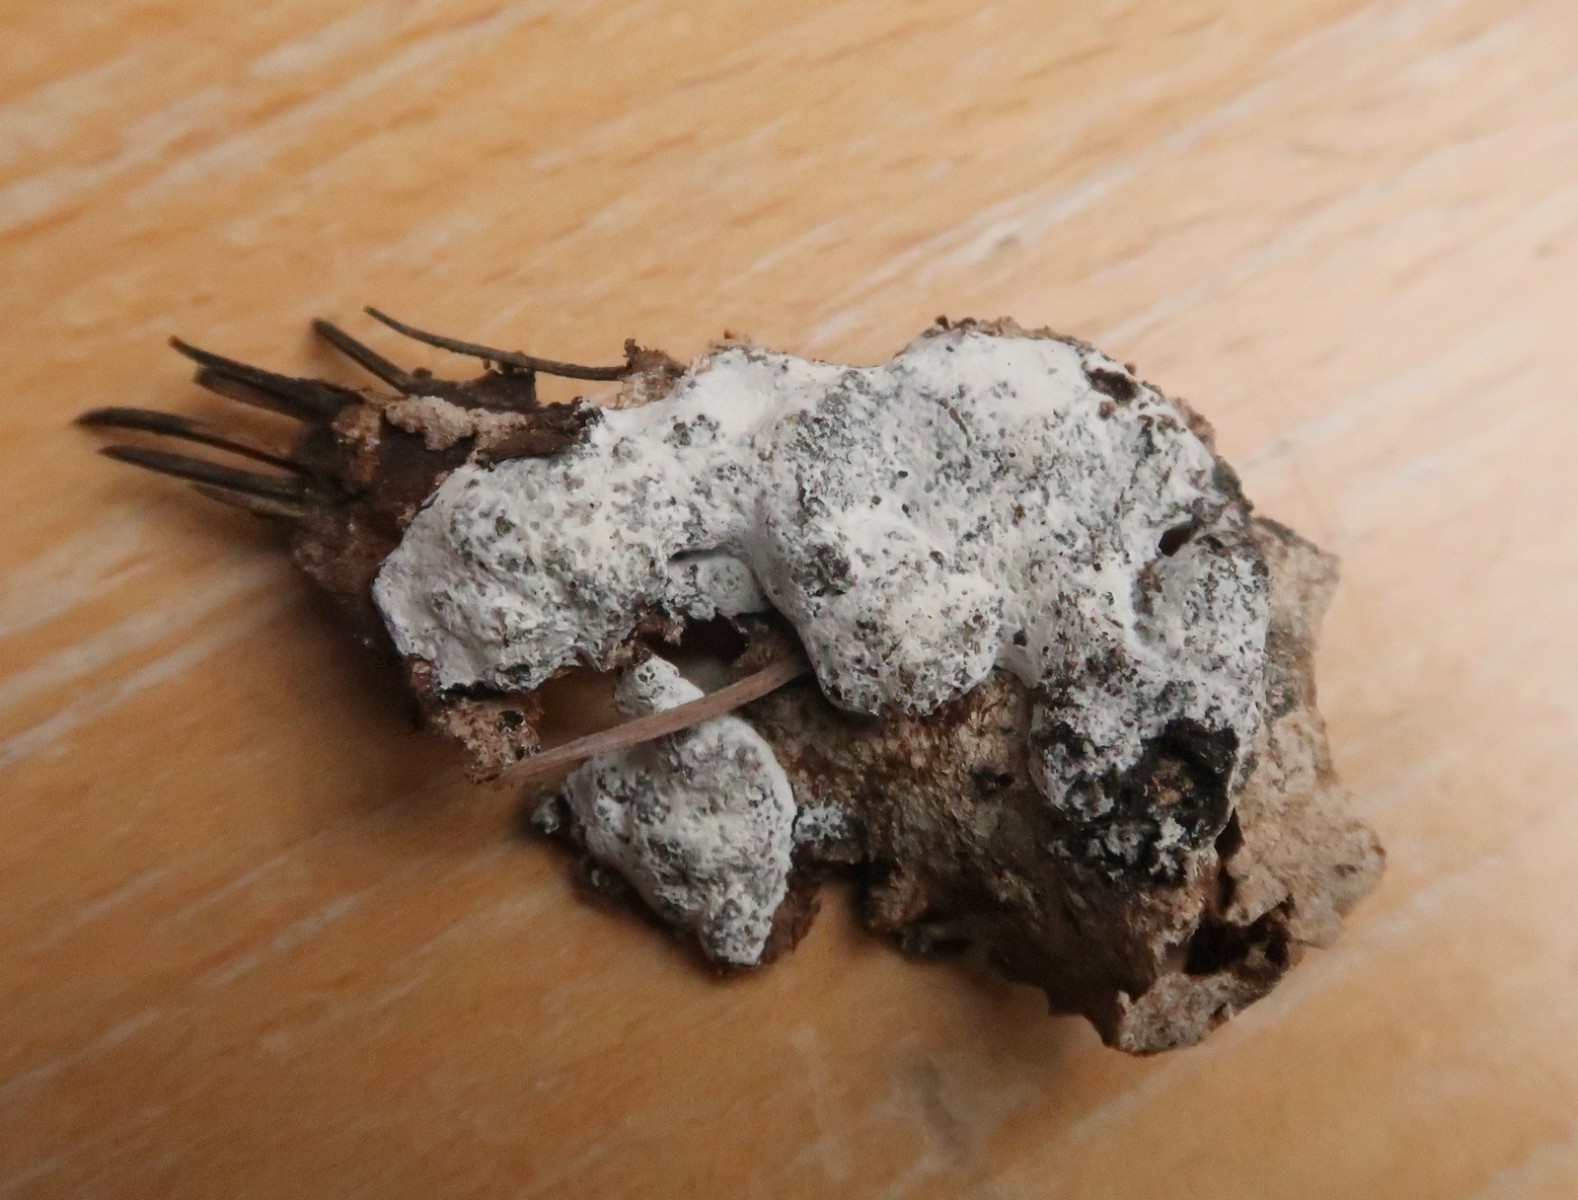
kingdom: Protozoa
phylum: Mycetozoa
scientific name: Mycetozoa
